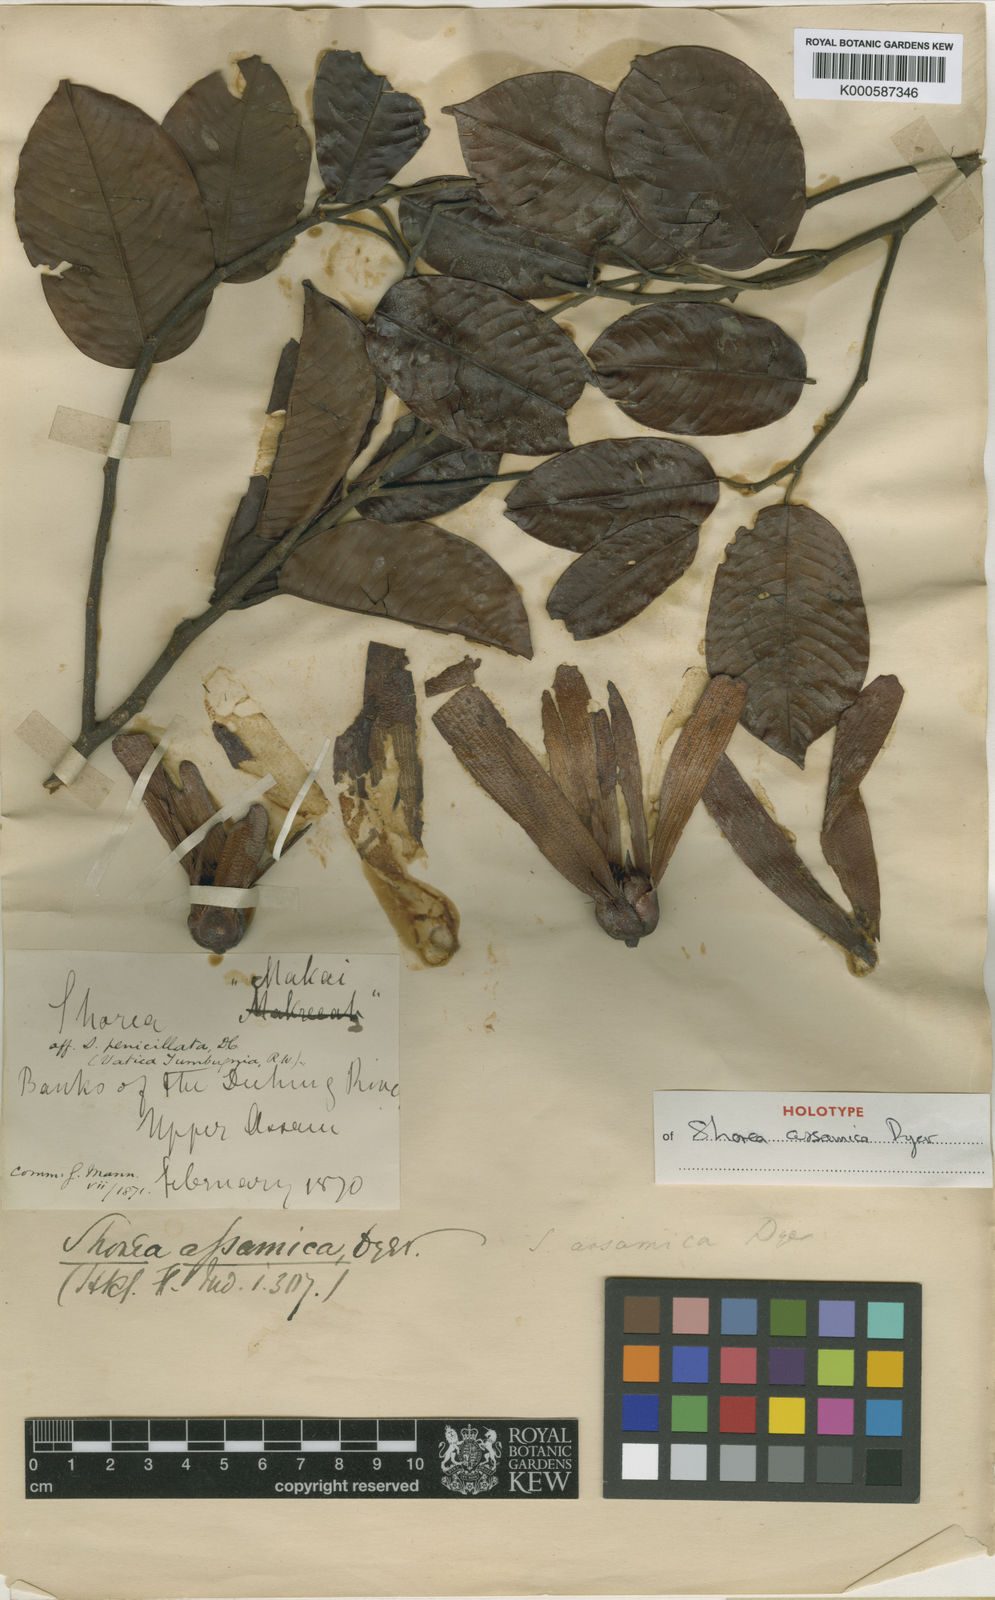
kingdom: Plantae
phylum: Tracheophyta
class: Magnoliopsida
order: Malvales
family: Dipterocarpaceae
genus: Anthoshorea
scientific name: Anthoshorea assamica
